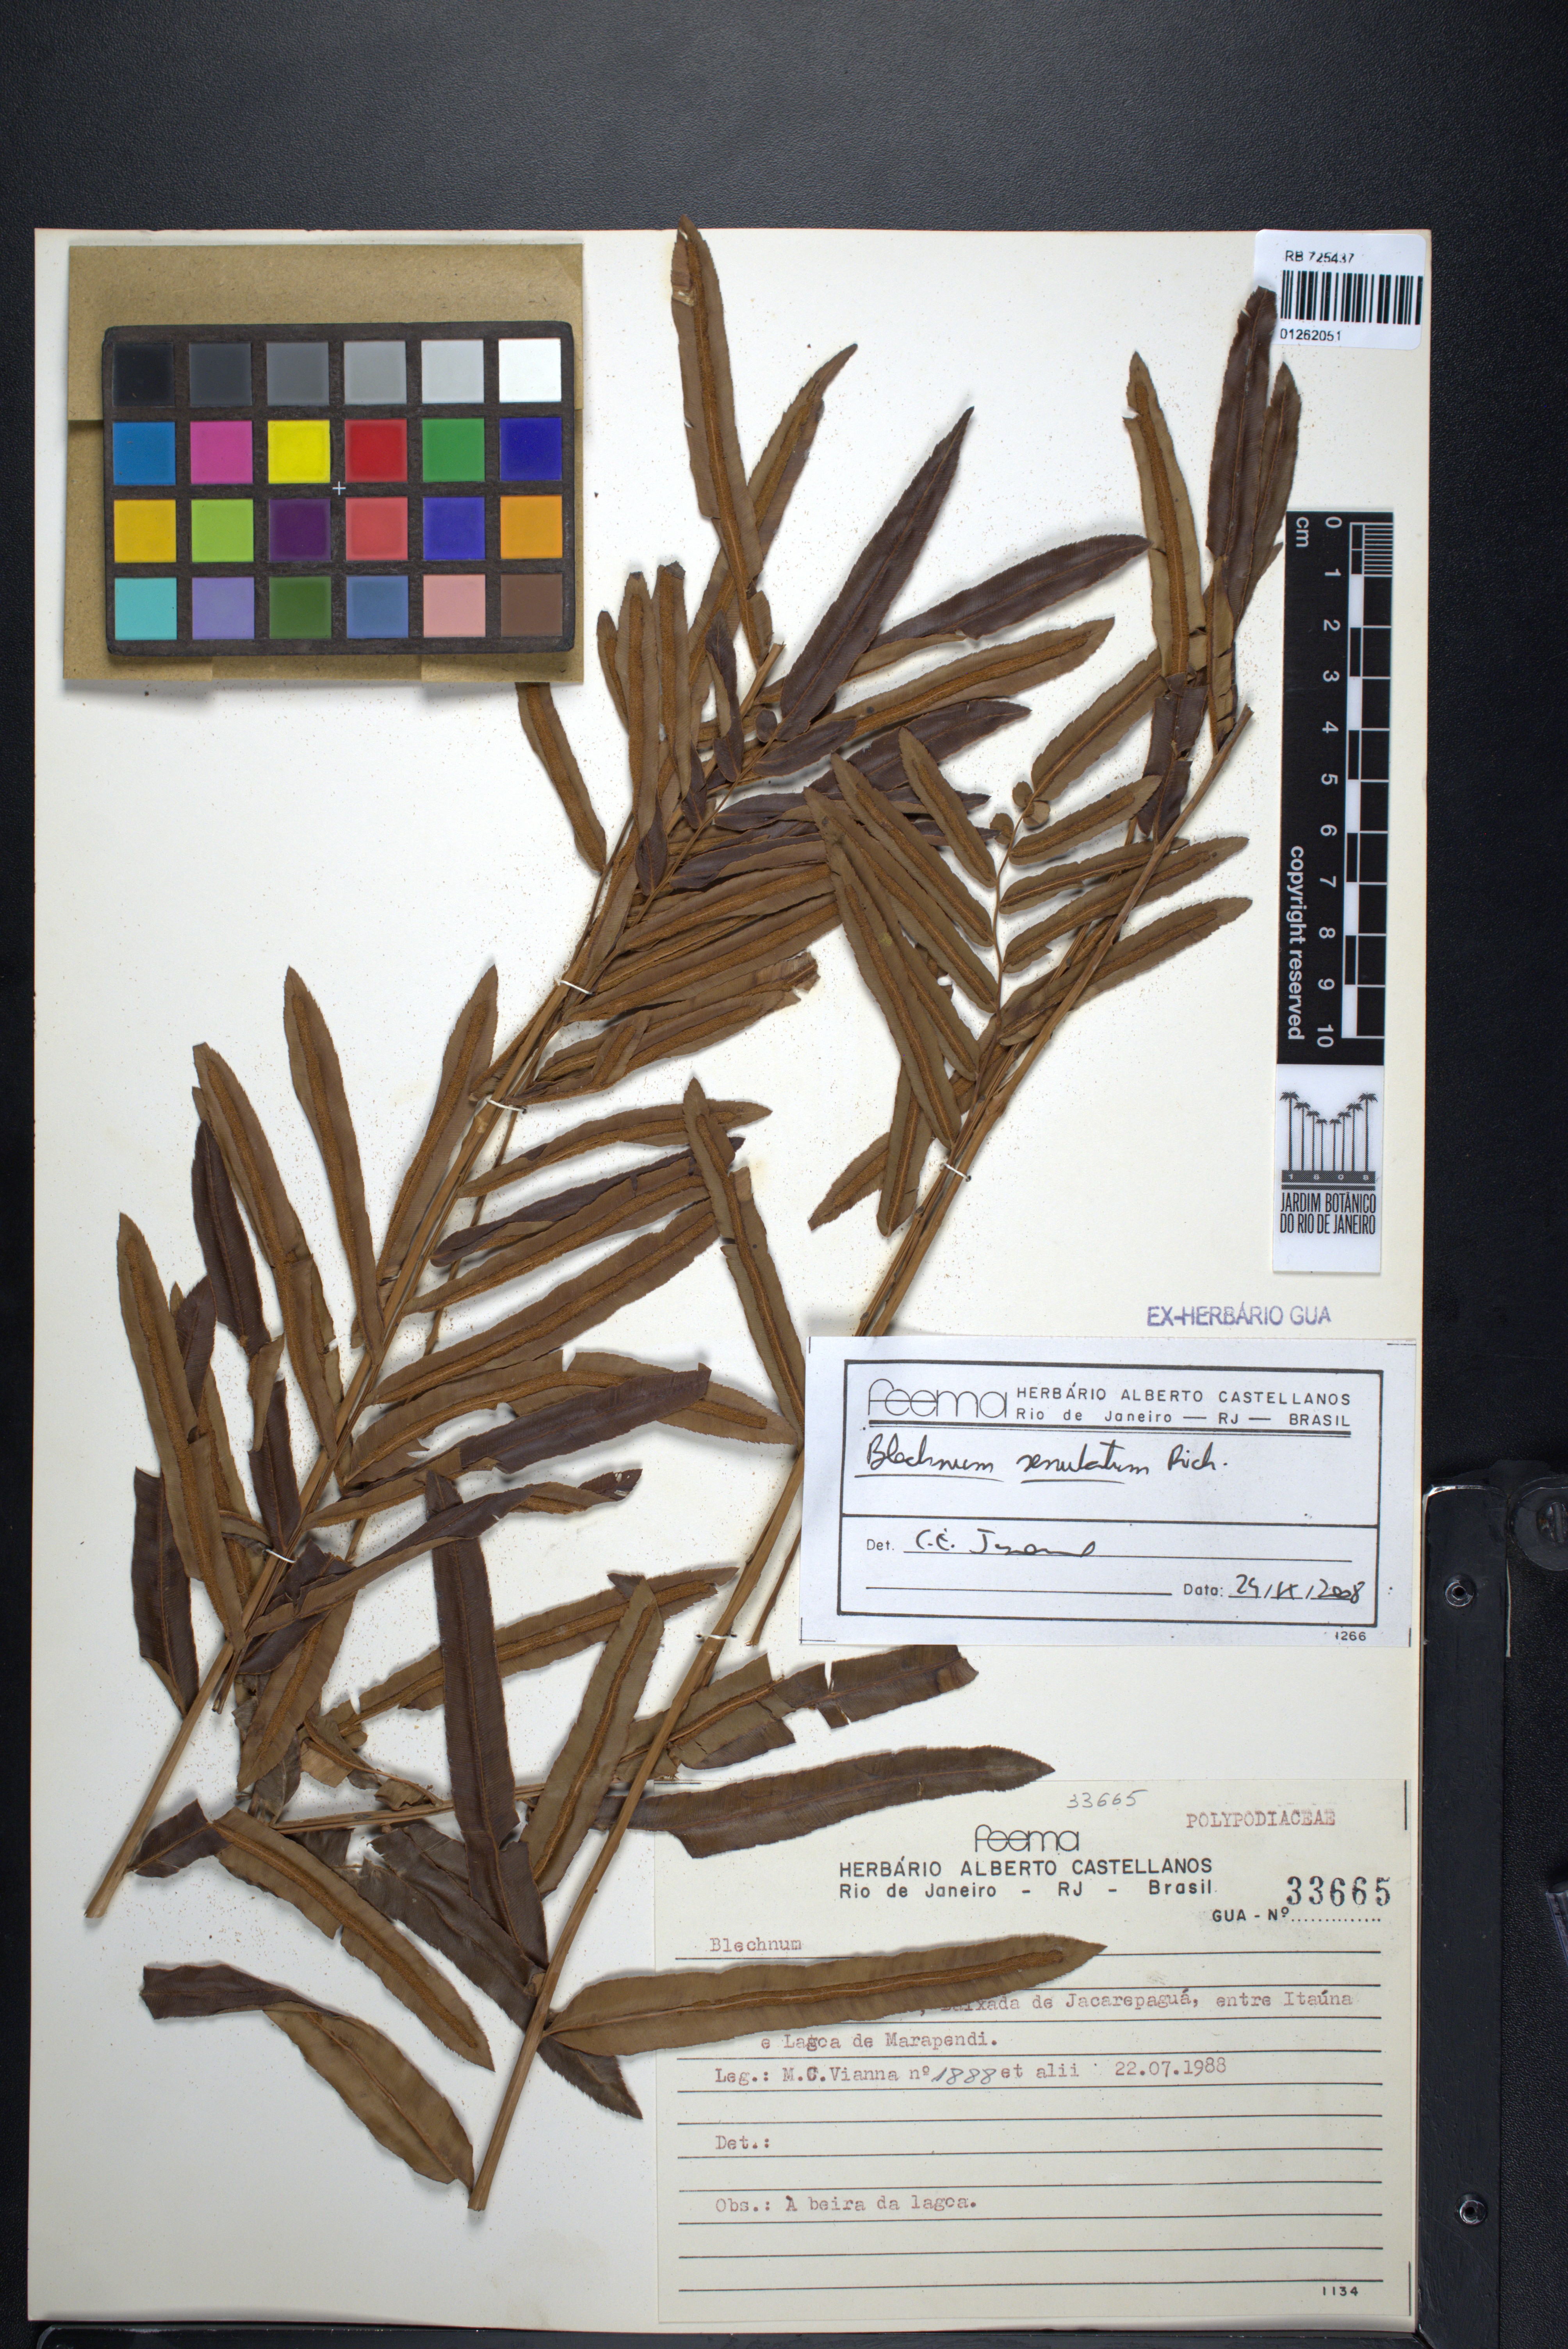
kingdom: Plantae
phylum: Tracheophyta
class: Polypodiopsida
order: Polypodiales
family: Blechnaceae
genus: Telmatoblechnum
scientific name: Telmatoblechnum serrulatum
